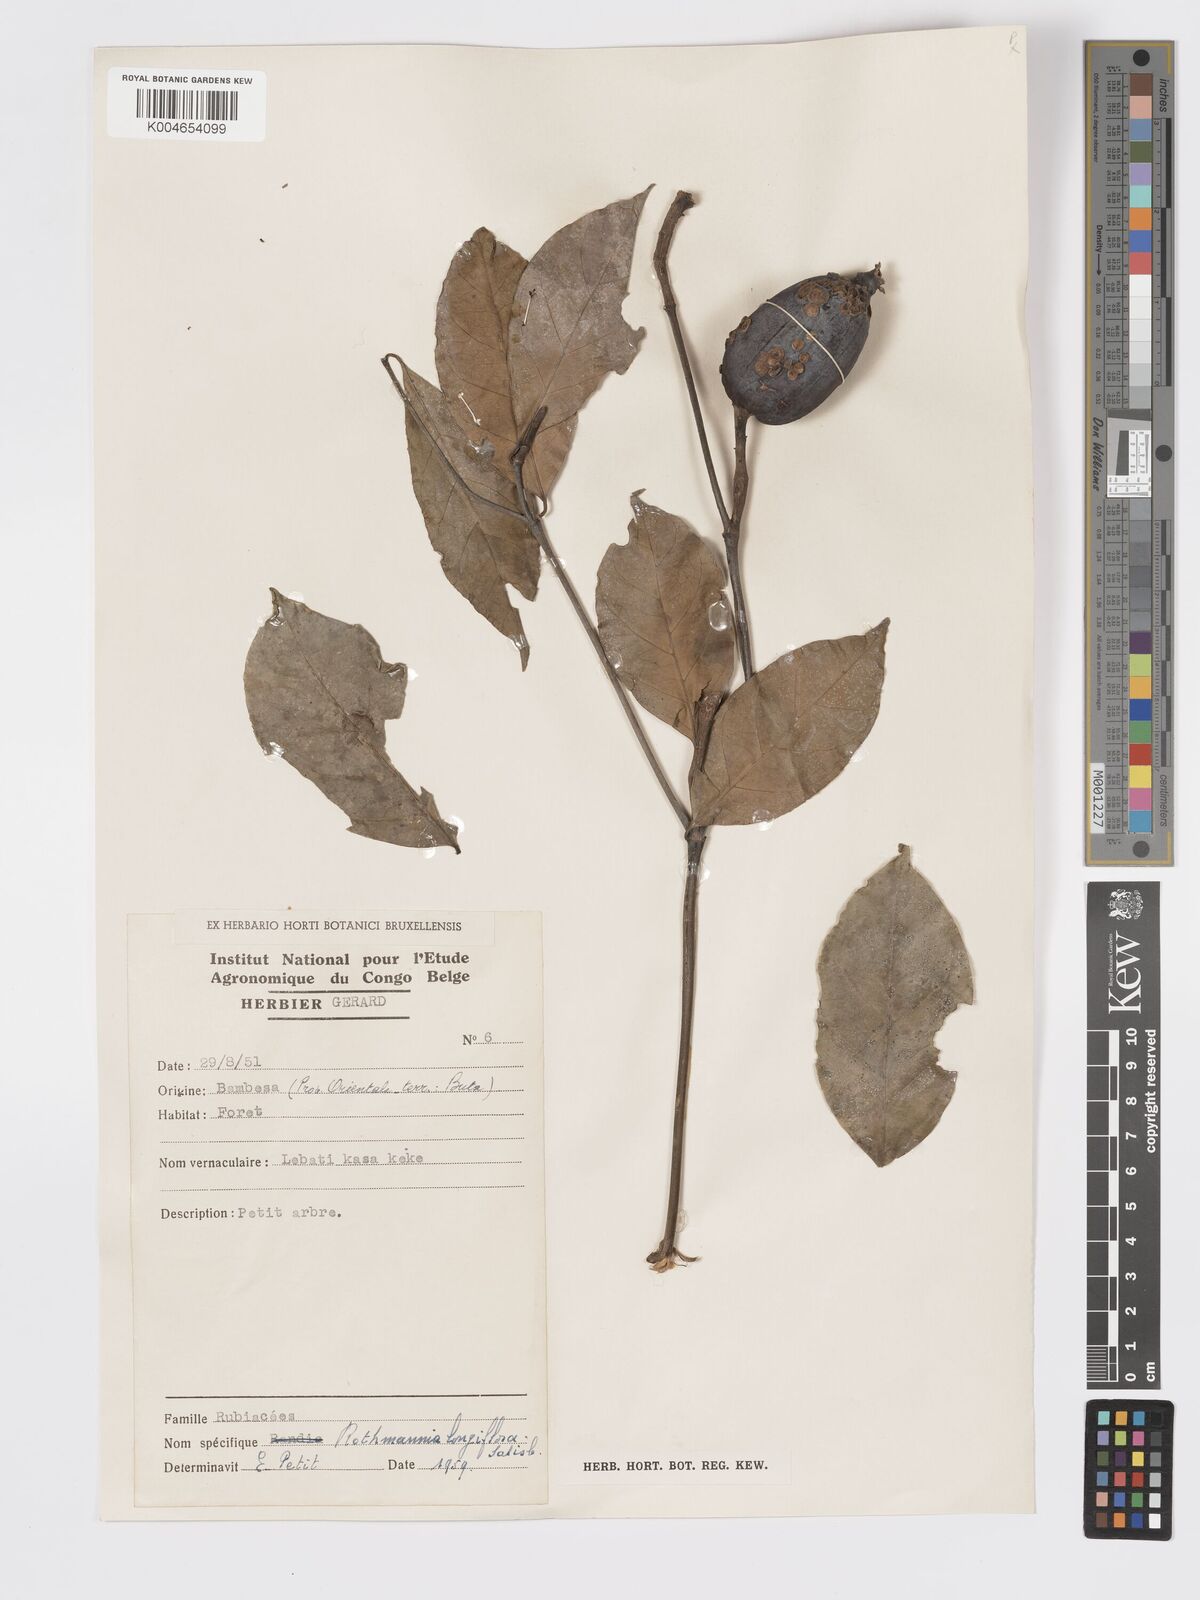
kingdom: Plantae
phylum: Tracheophyta
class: Magnoliopsida
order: Gentianales
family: Rubiaceae
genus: Rothmannia
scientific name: Rothmannia longiflora
